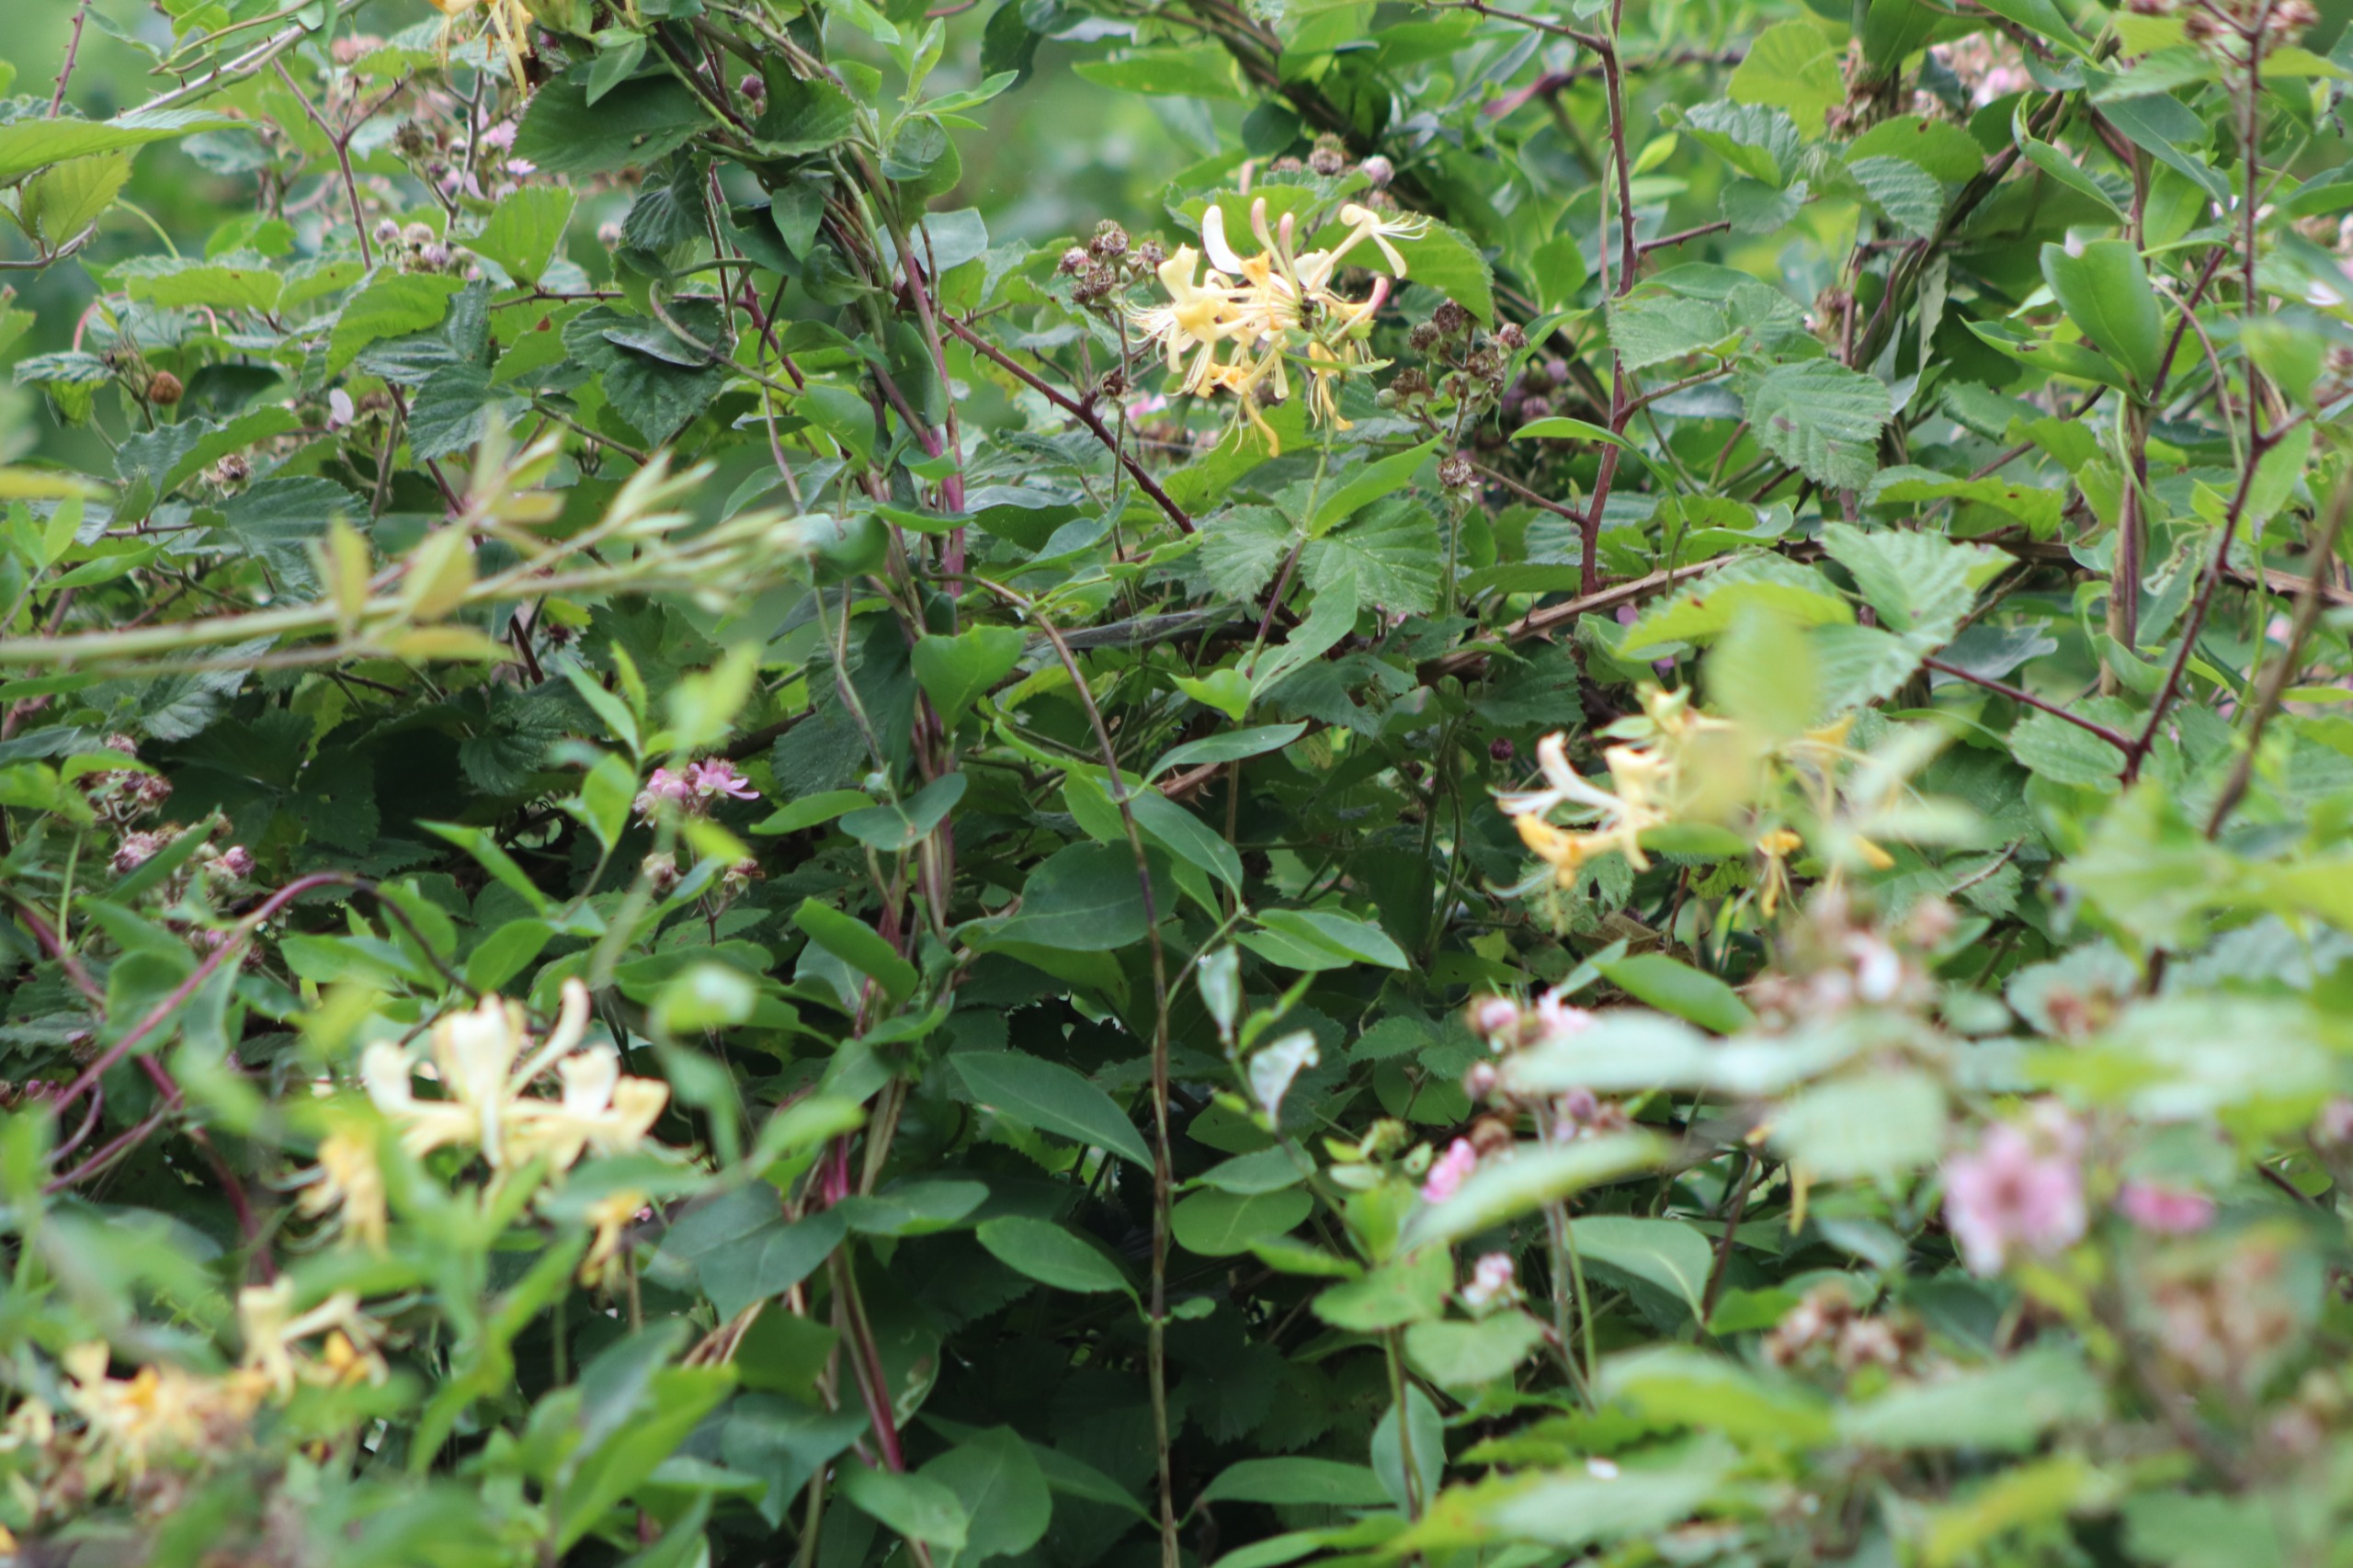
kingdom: Plantae
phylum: Tracheophyta
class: Magnoliopsida
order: Dipsacales
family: Caprifoliaceae
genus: Lonicera
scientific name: Lonicera periclymenum
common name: Almindelig gedeblad
